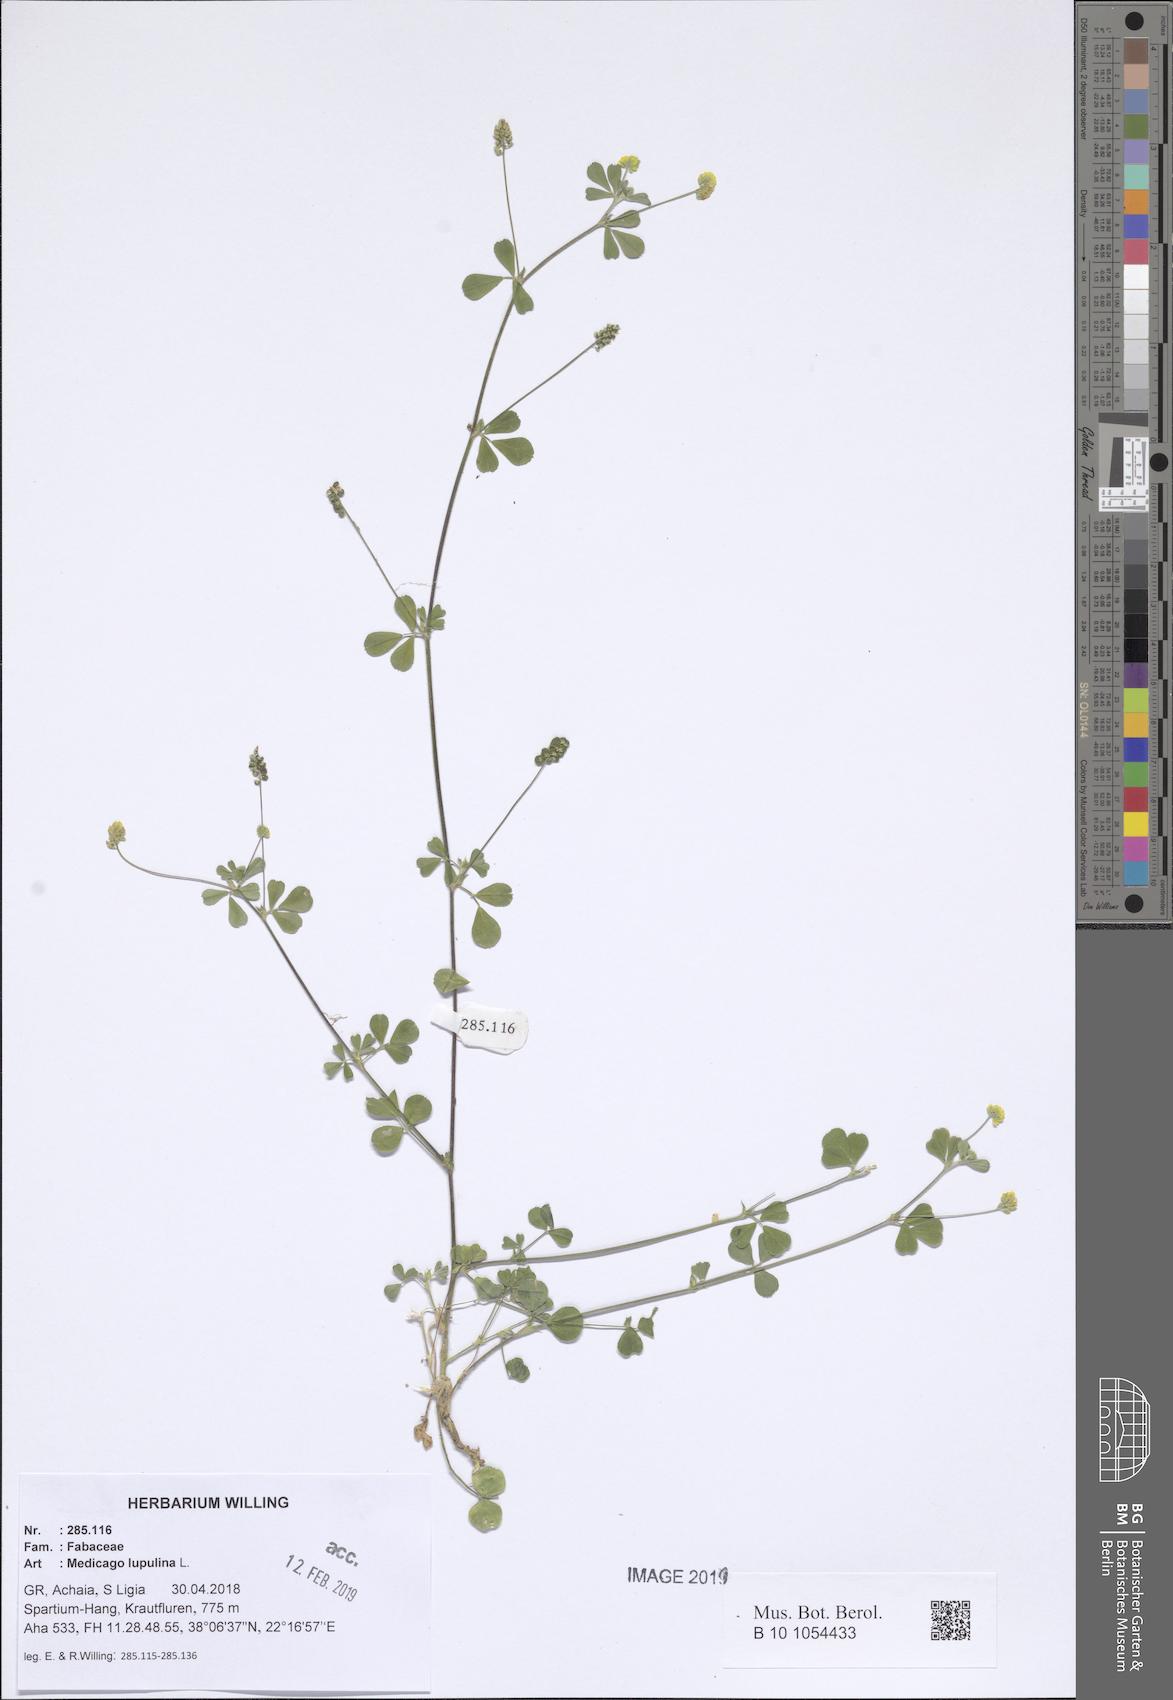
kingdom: Plantae
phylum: Tracheophyta
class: Magnoliopsida
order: Fabales
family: Fabaceae
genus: Medicago
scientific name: Medicago lupulina
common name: Black medick
